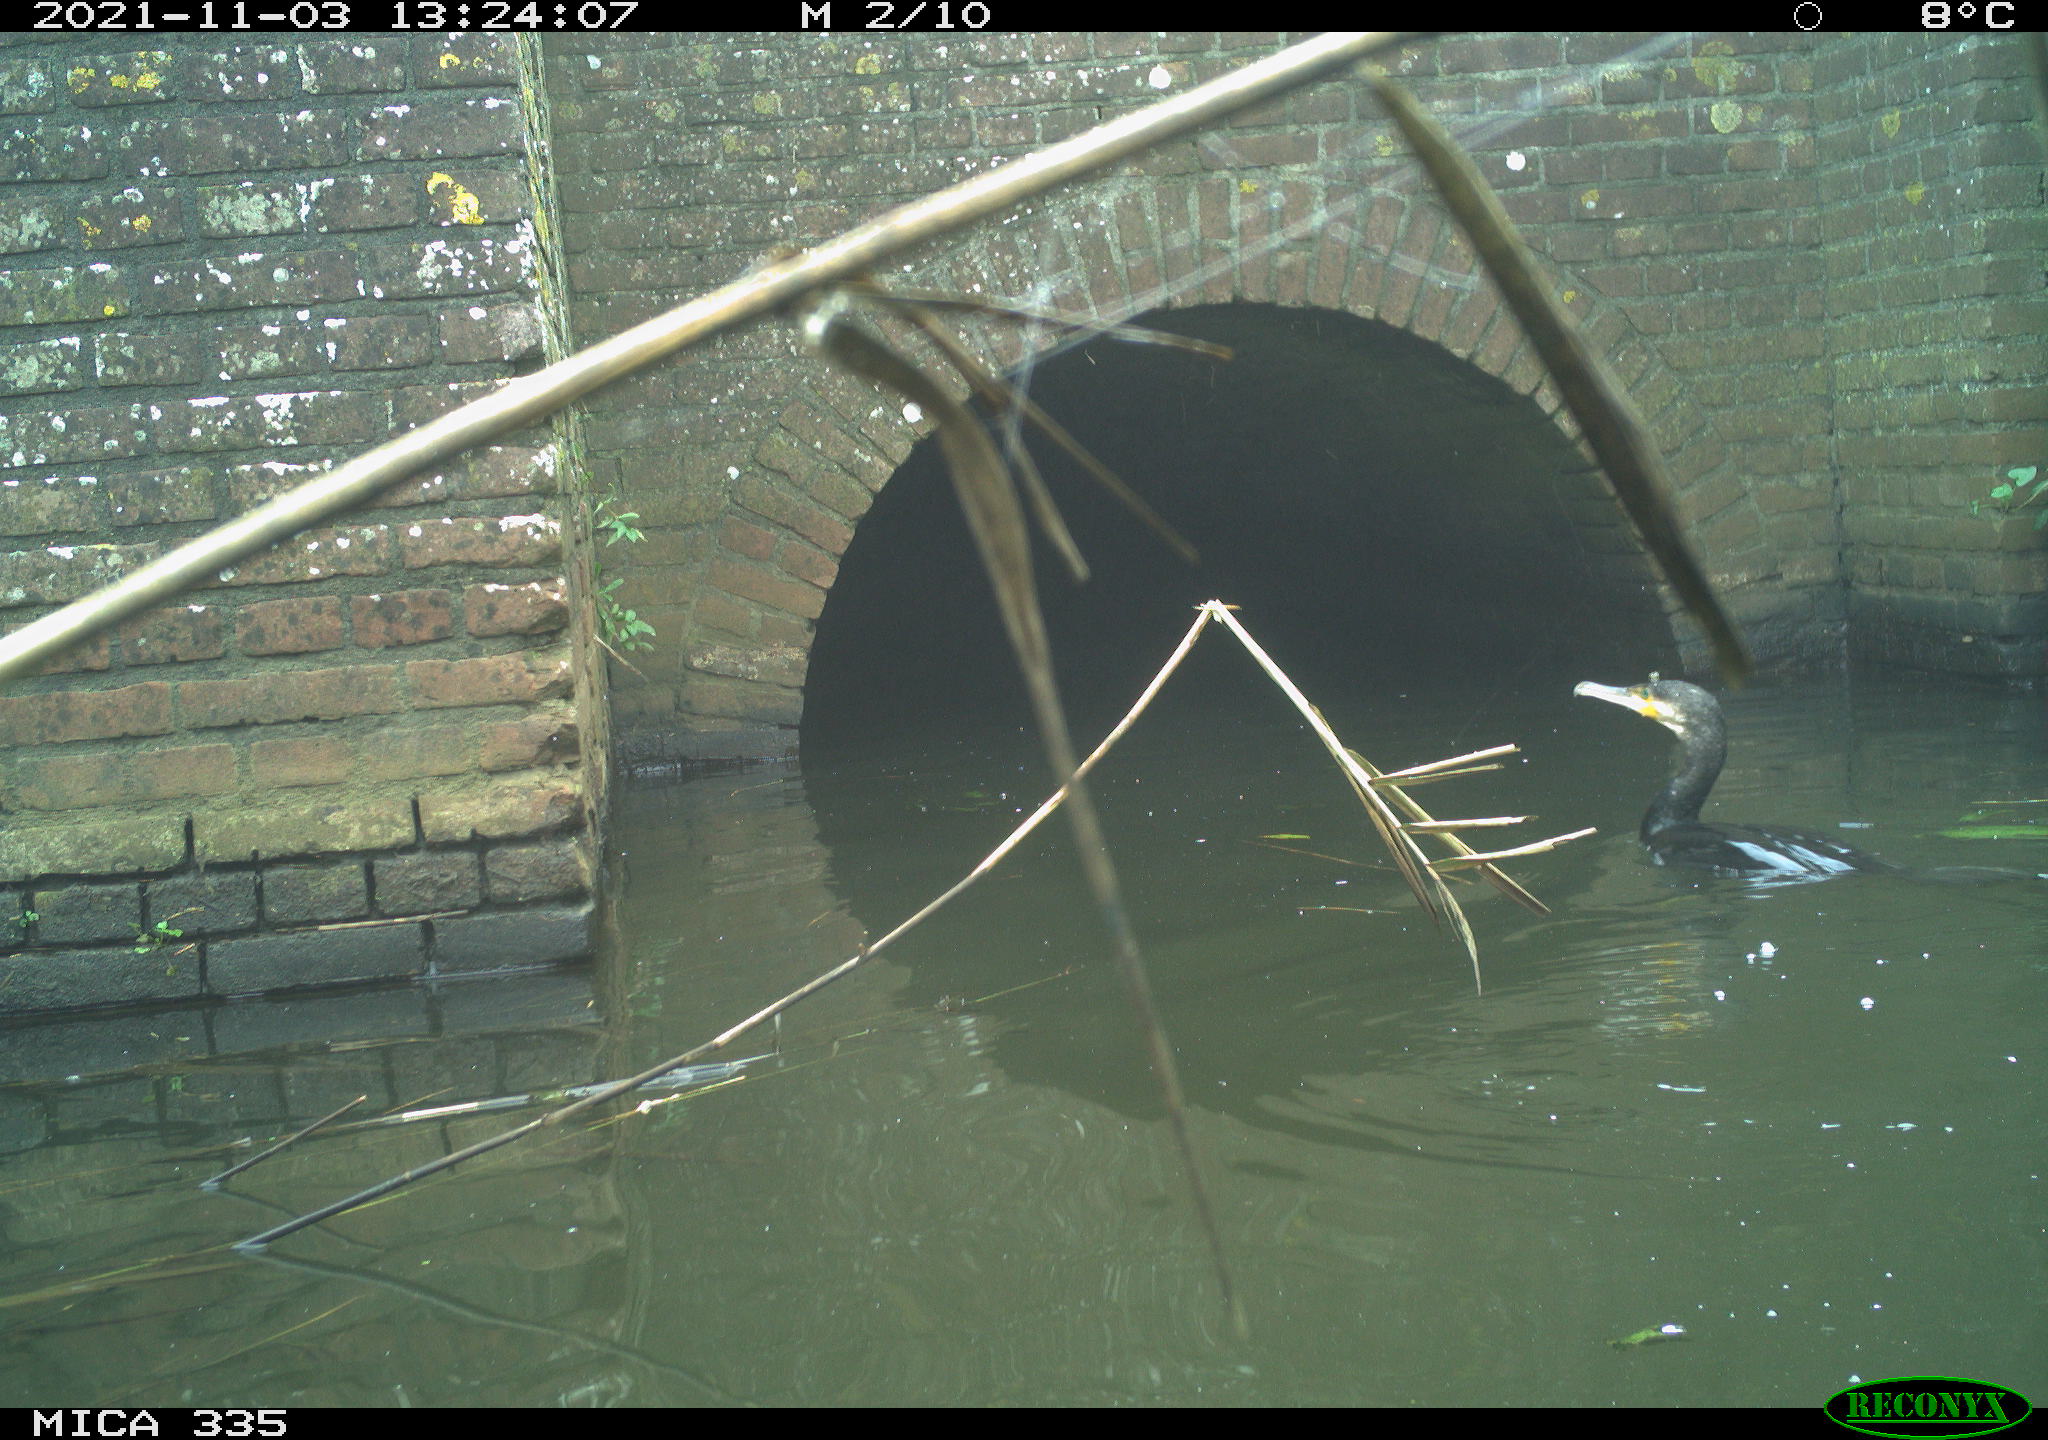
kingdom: Animalia
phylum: Chordata
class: Aves
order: Suliformes
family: Phalacrocoracidae
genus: Phalacrocorax
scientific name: Phalacrocorax carbo
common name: Great cormorant
